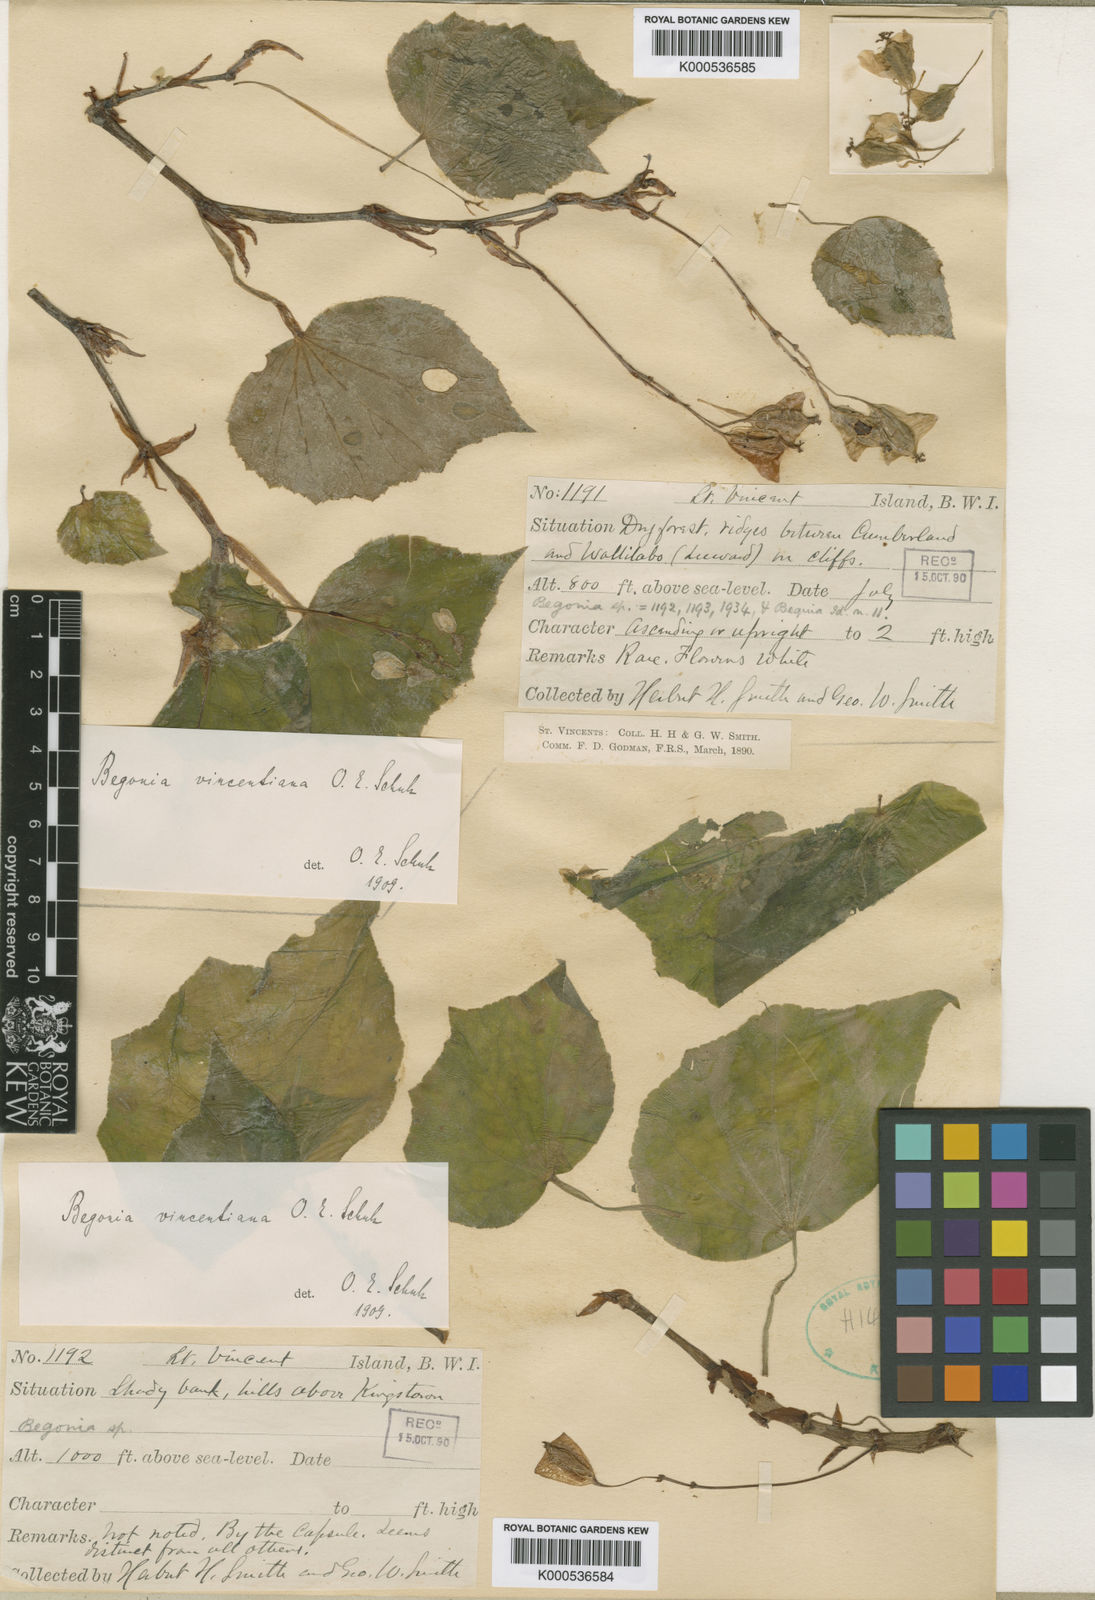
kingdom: Plantae
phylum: Tracheophyta
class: Magnoliopsida
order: Cucurbitales
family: Begoniaceae
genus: Begonia
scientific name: Begonia vincentina
